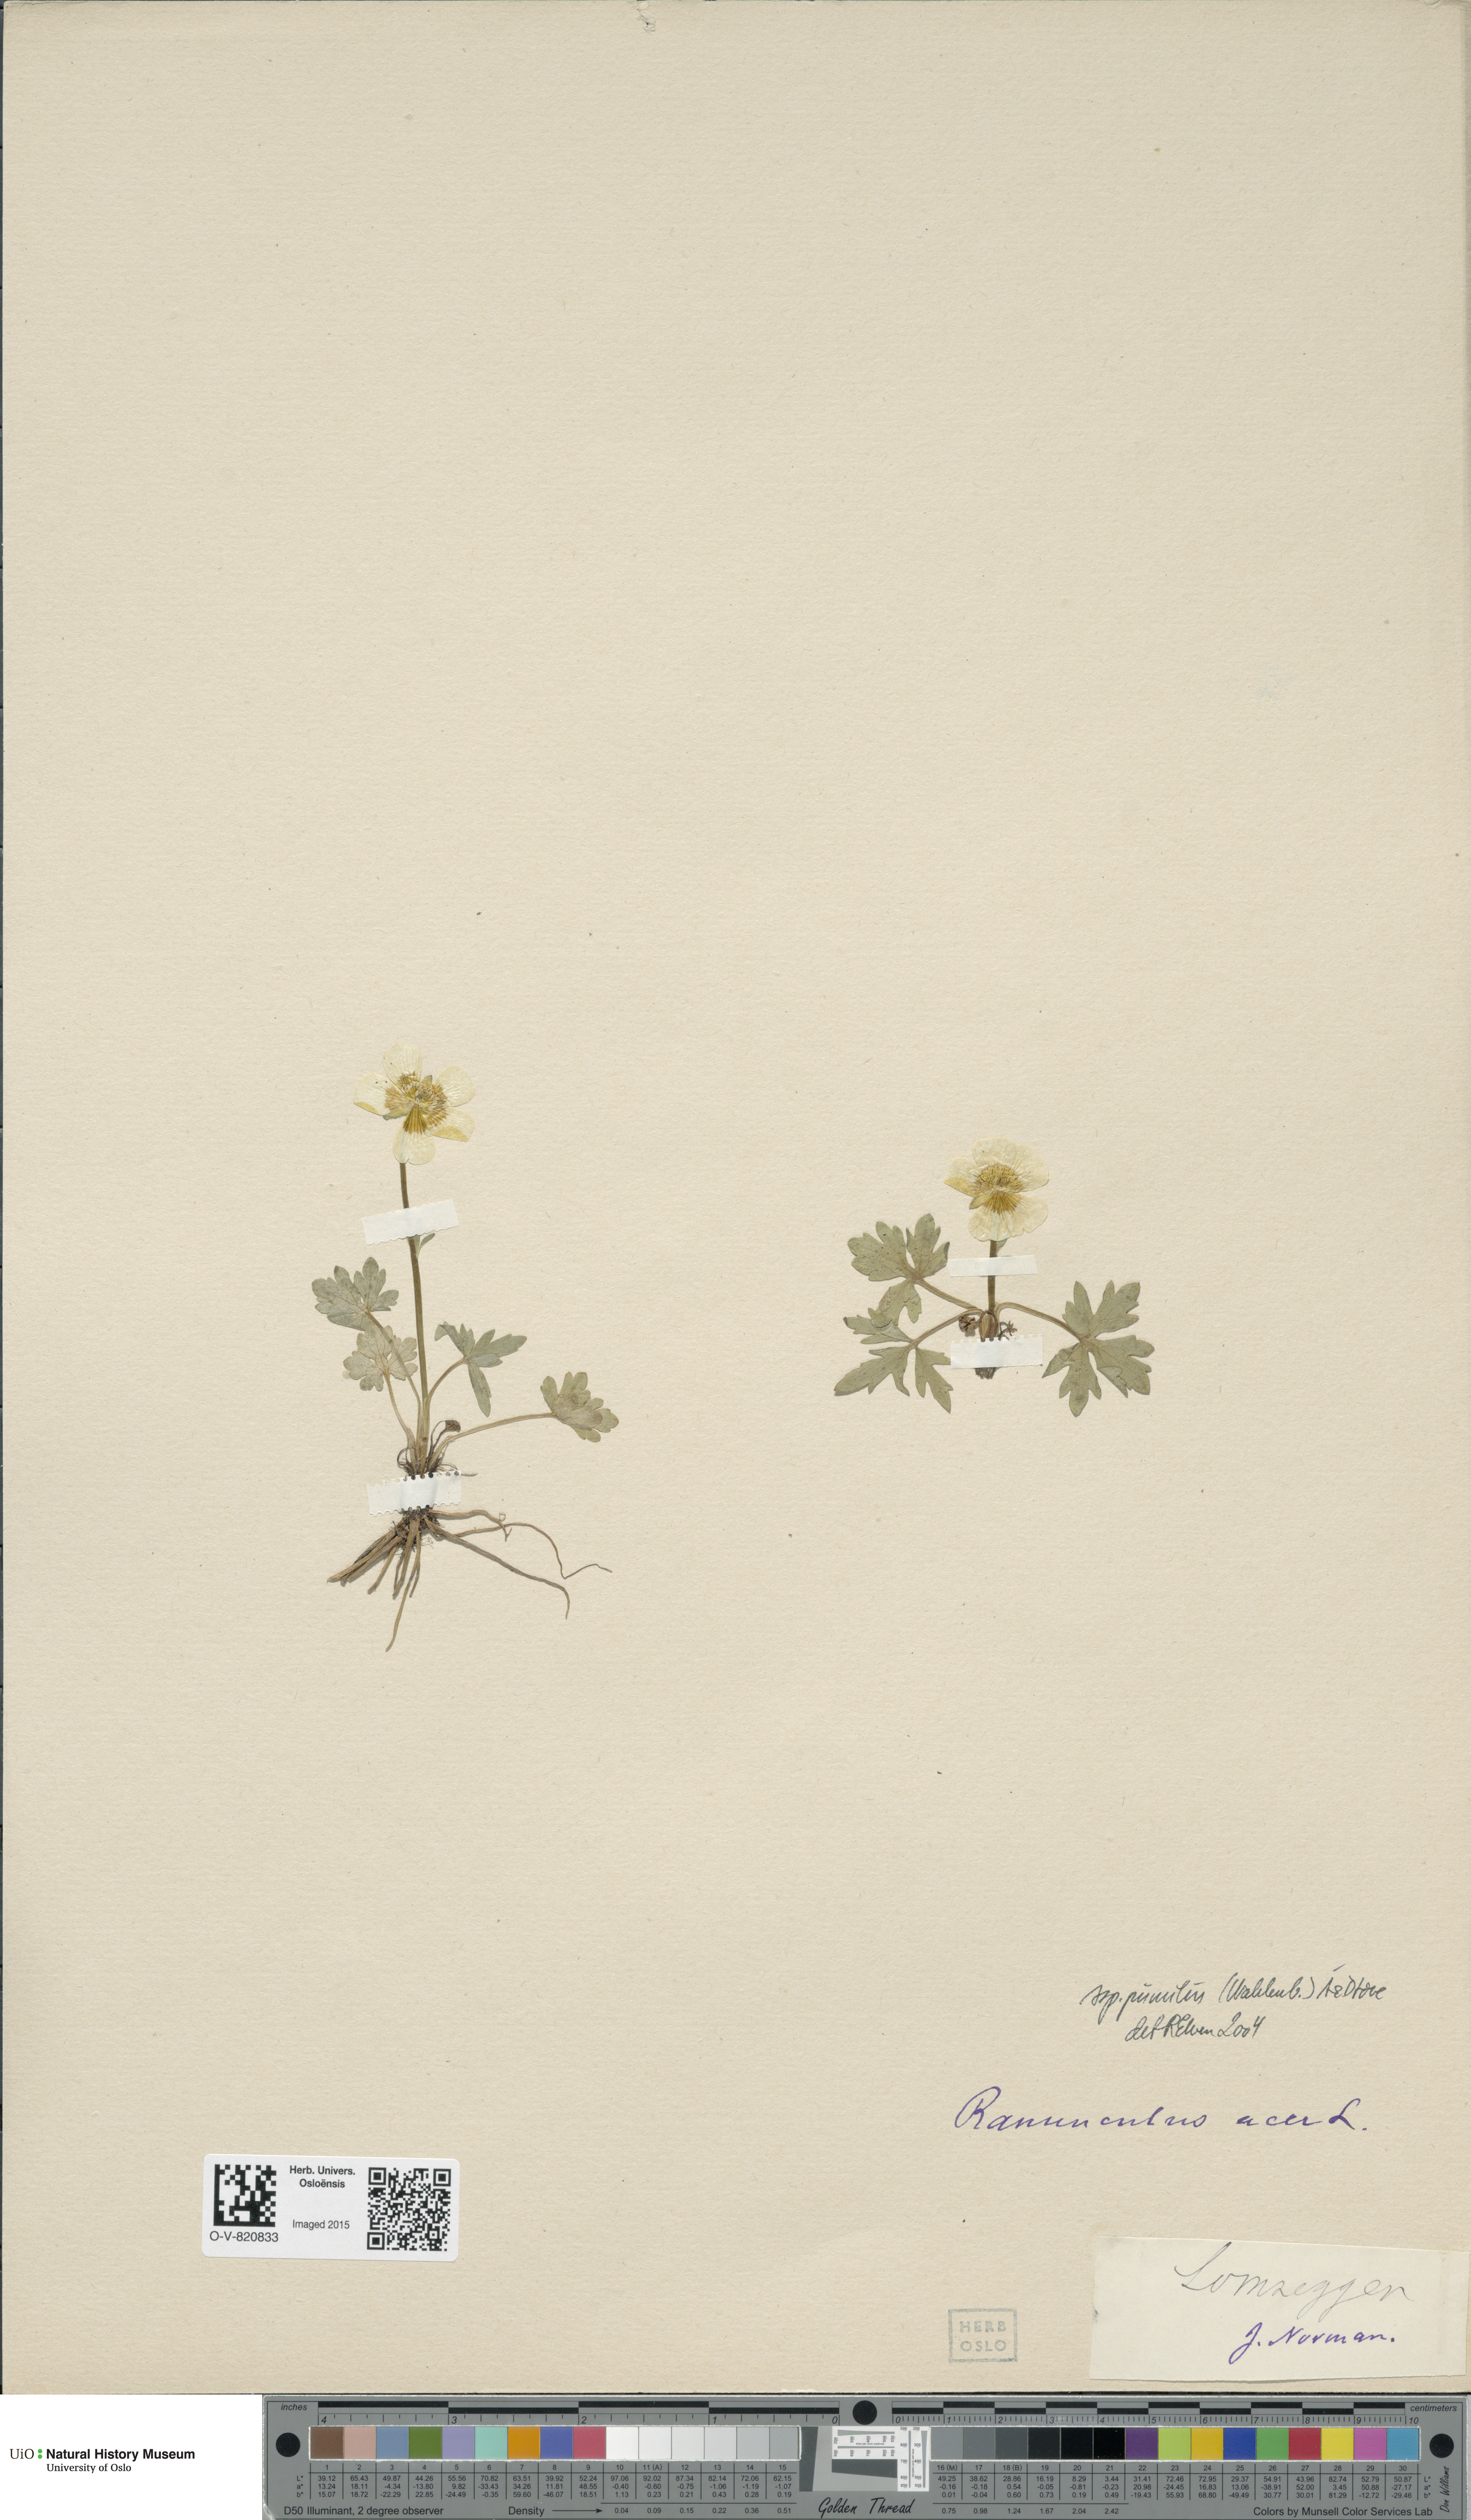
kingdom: Plantae
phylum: Tracheophyta
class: Magnoliopsida
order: Ranunculales
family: Ranunculaceae
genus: Ranunculus
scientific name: Ranunculus
